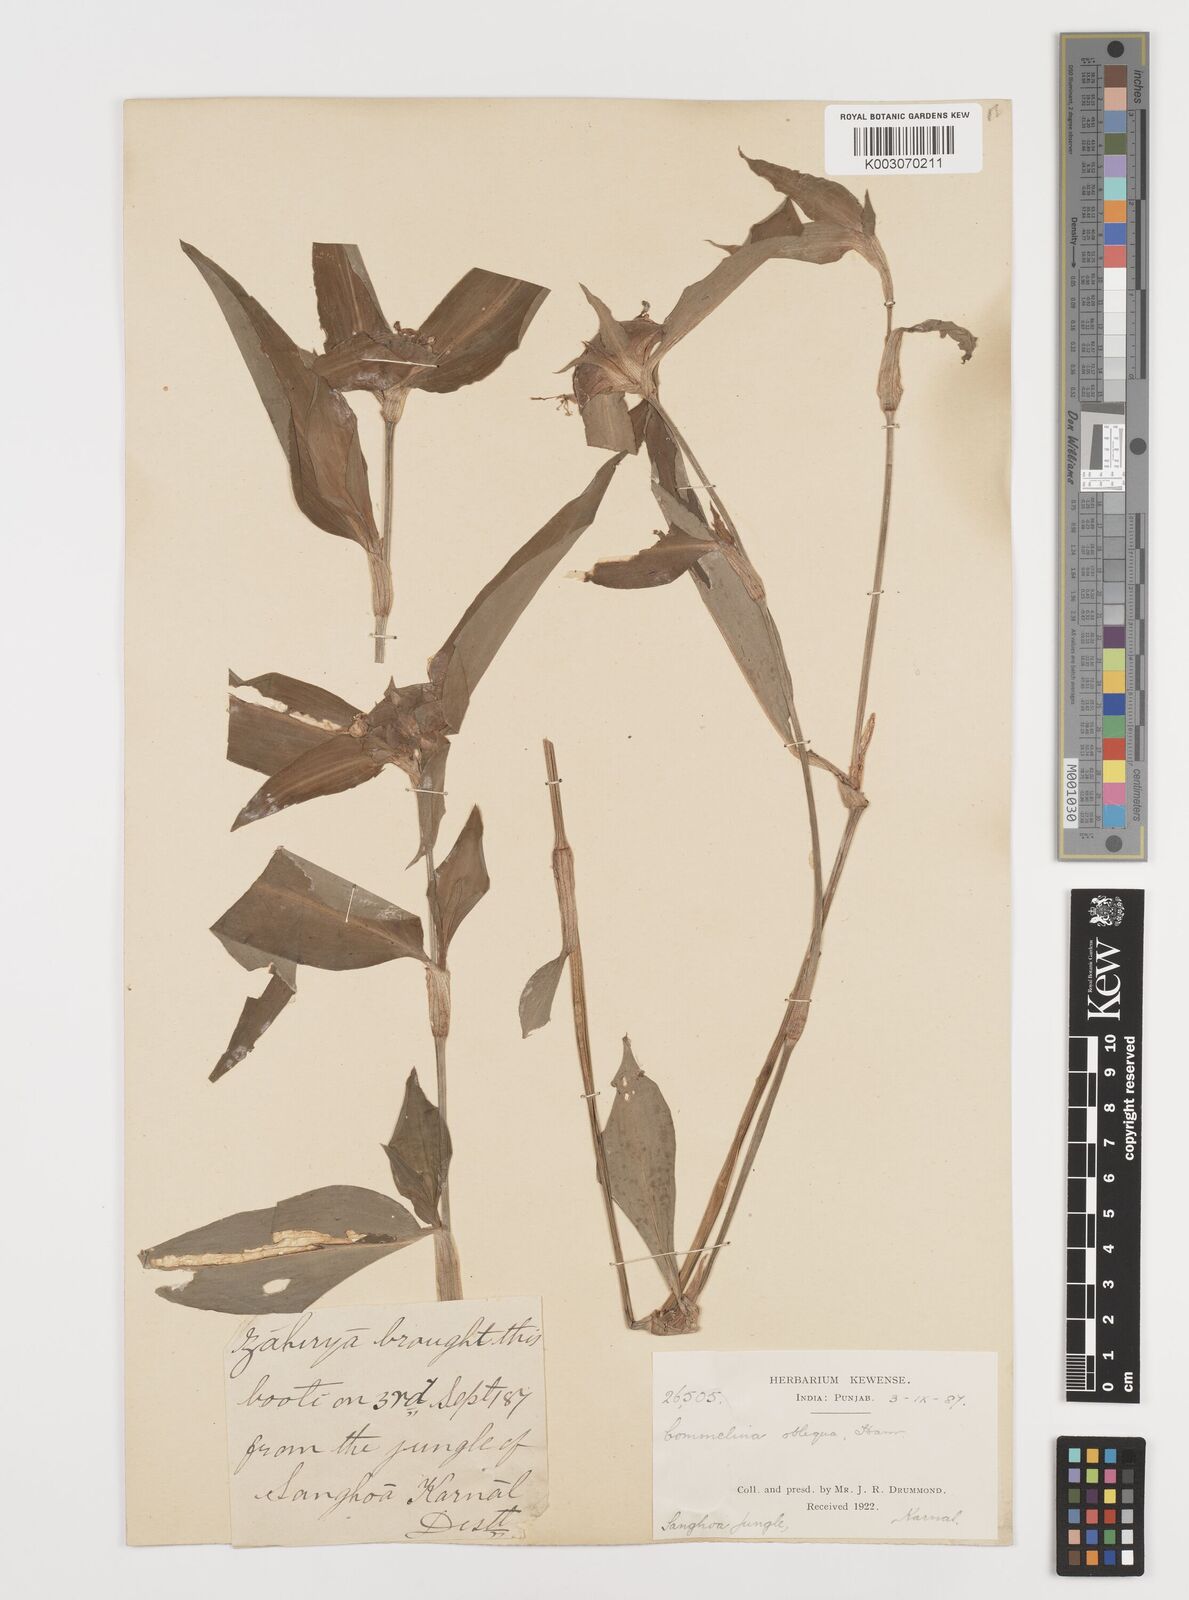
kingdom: Plantae
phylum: Tracheophyta
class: Liliopsida
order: Commelinales
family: Commelinaceae
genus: Commelina
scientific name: Commelina paludosa
